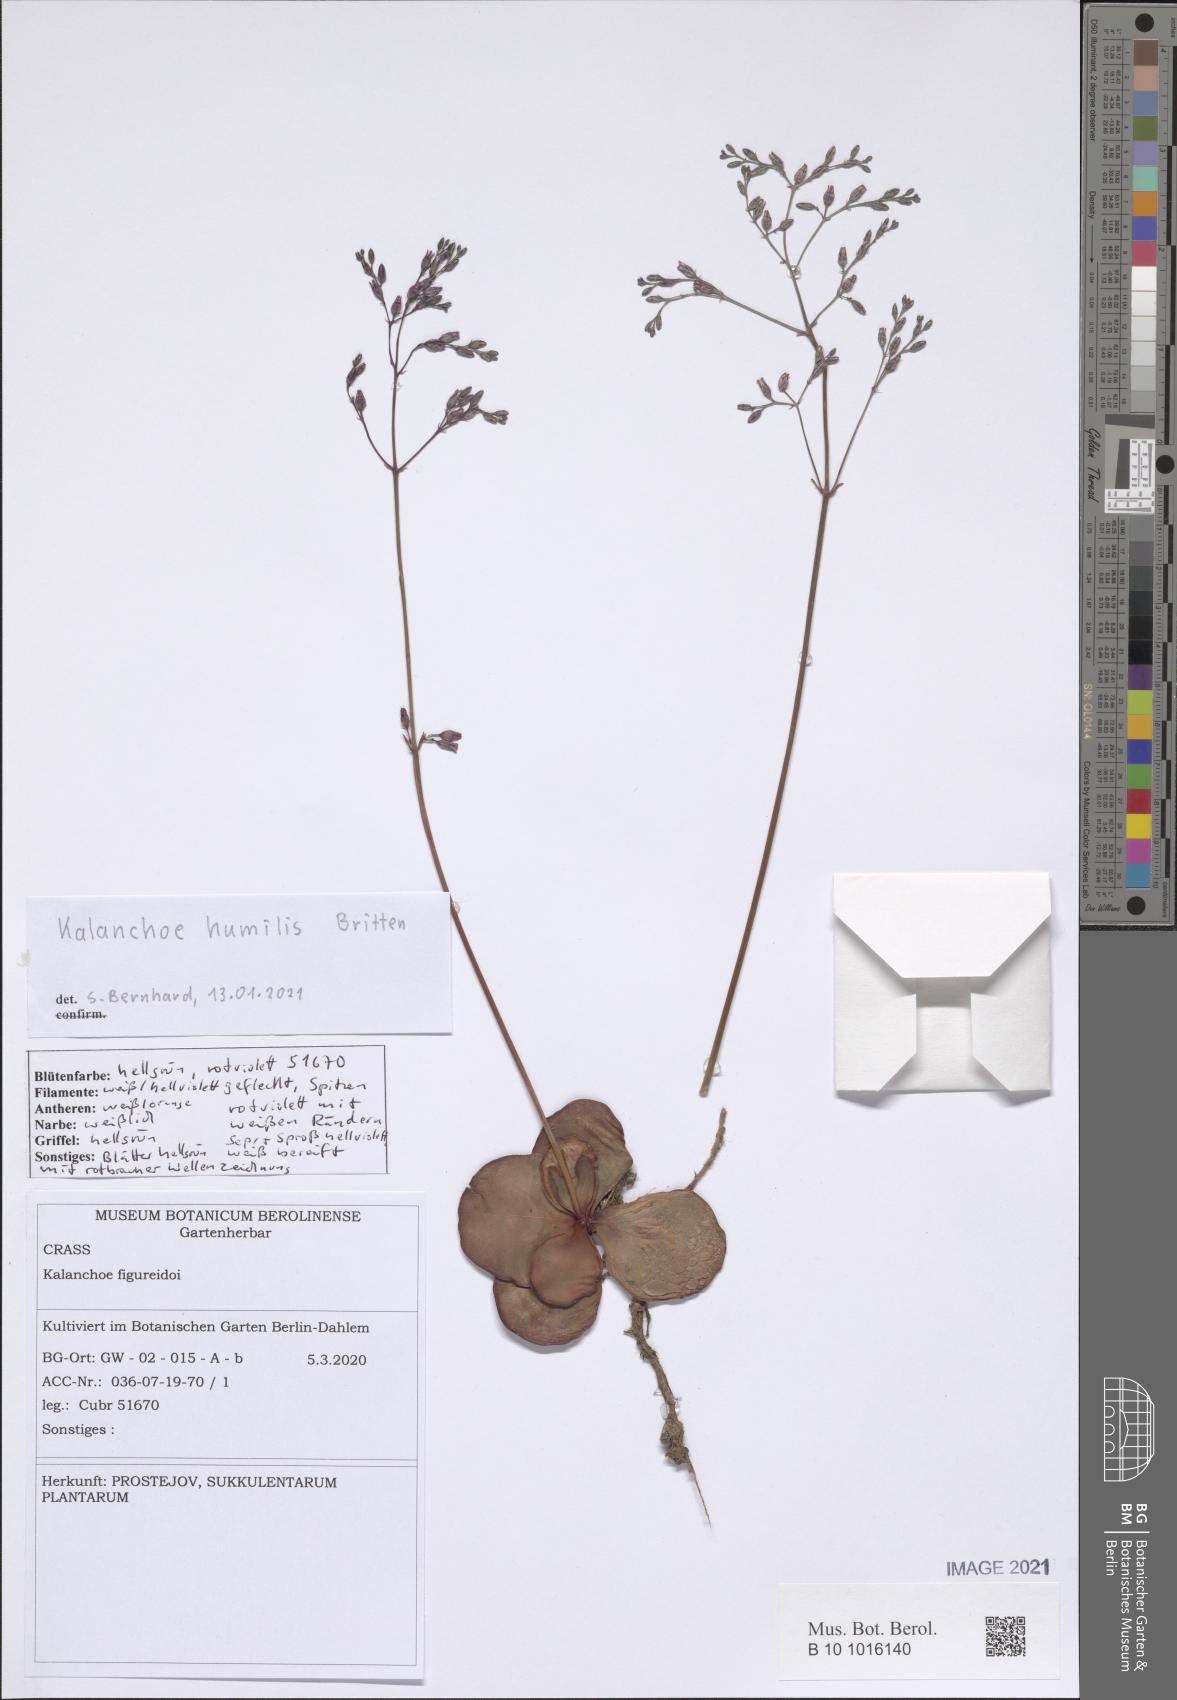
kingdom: Plantae
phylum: Tracheophyta
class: Magnoliopsida
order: Saxifragales
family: Crassulaceae
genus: Kalanchoe
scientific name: Kalanchoe humilis
